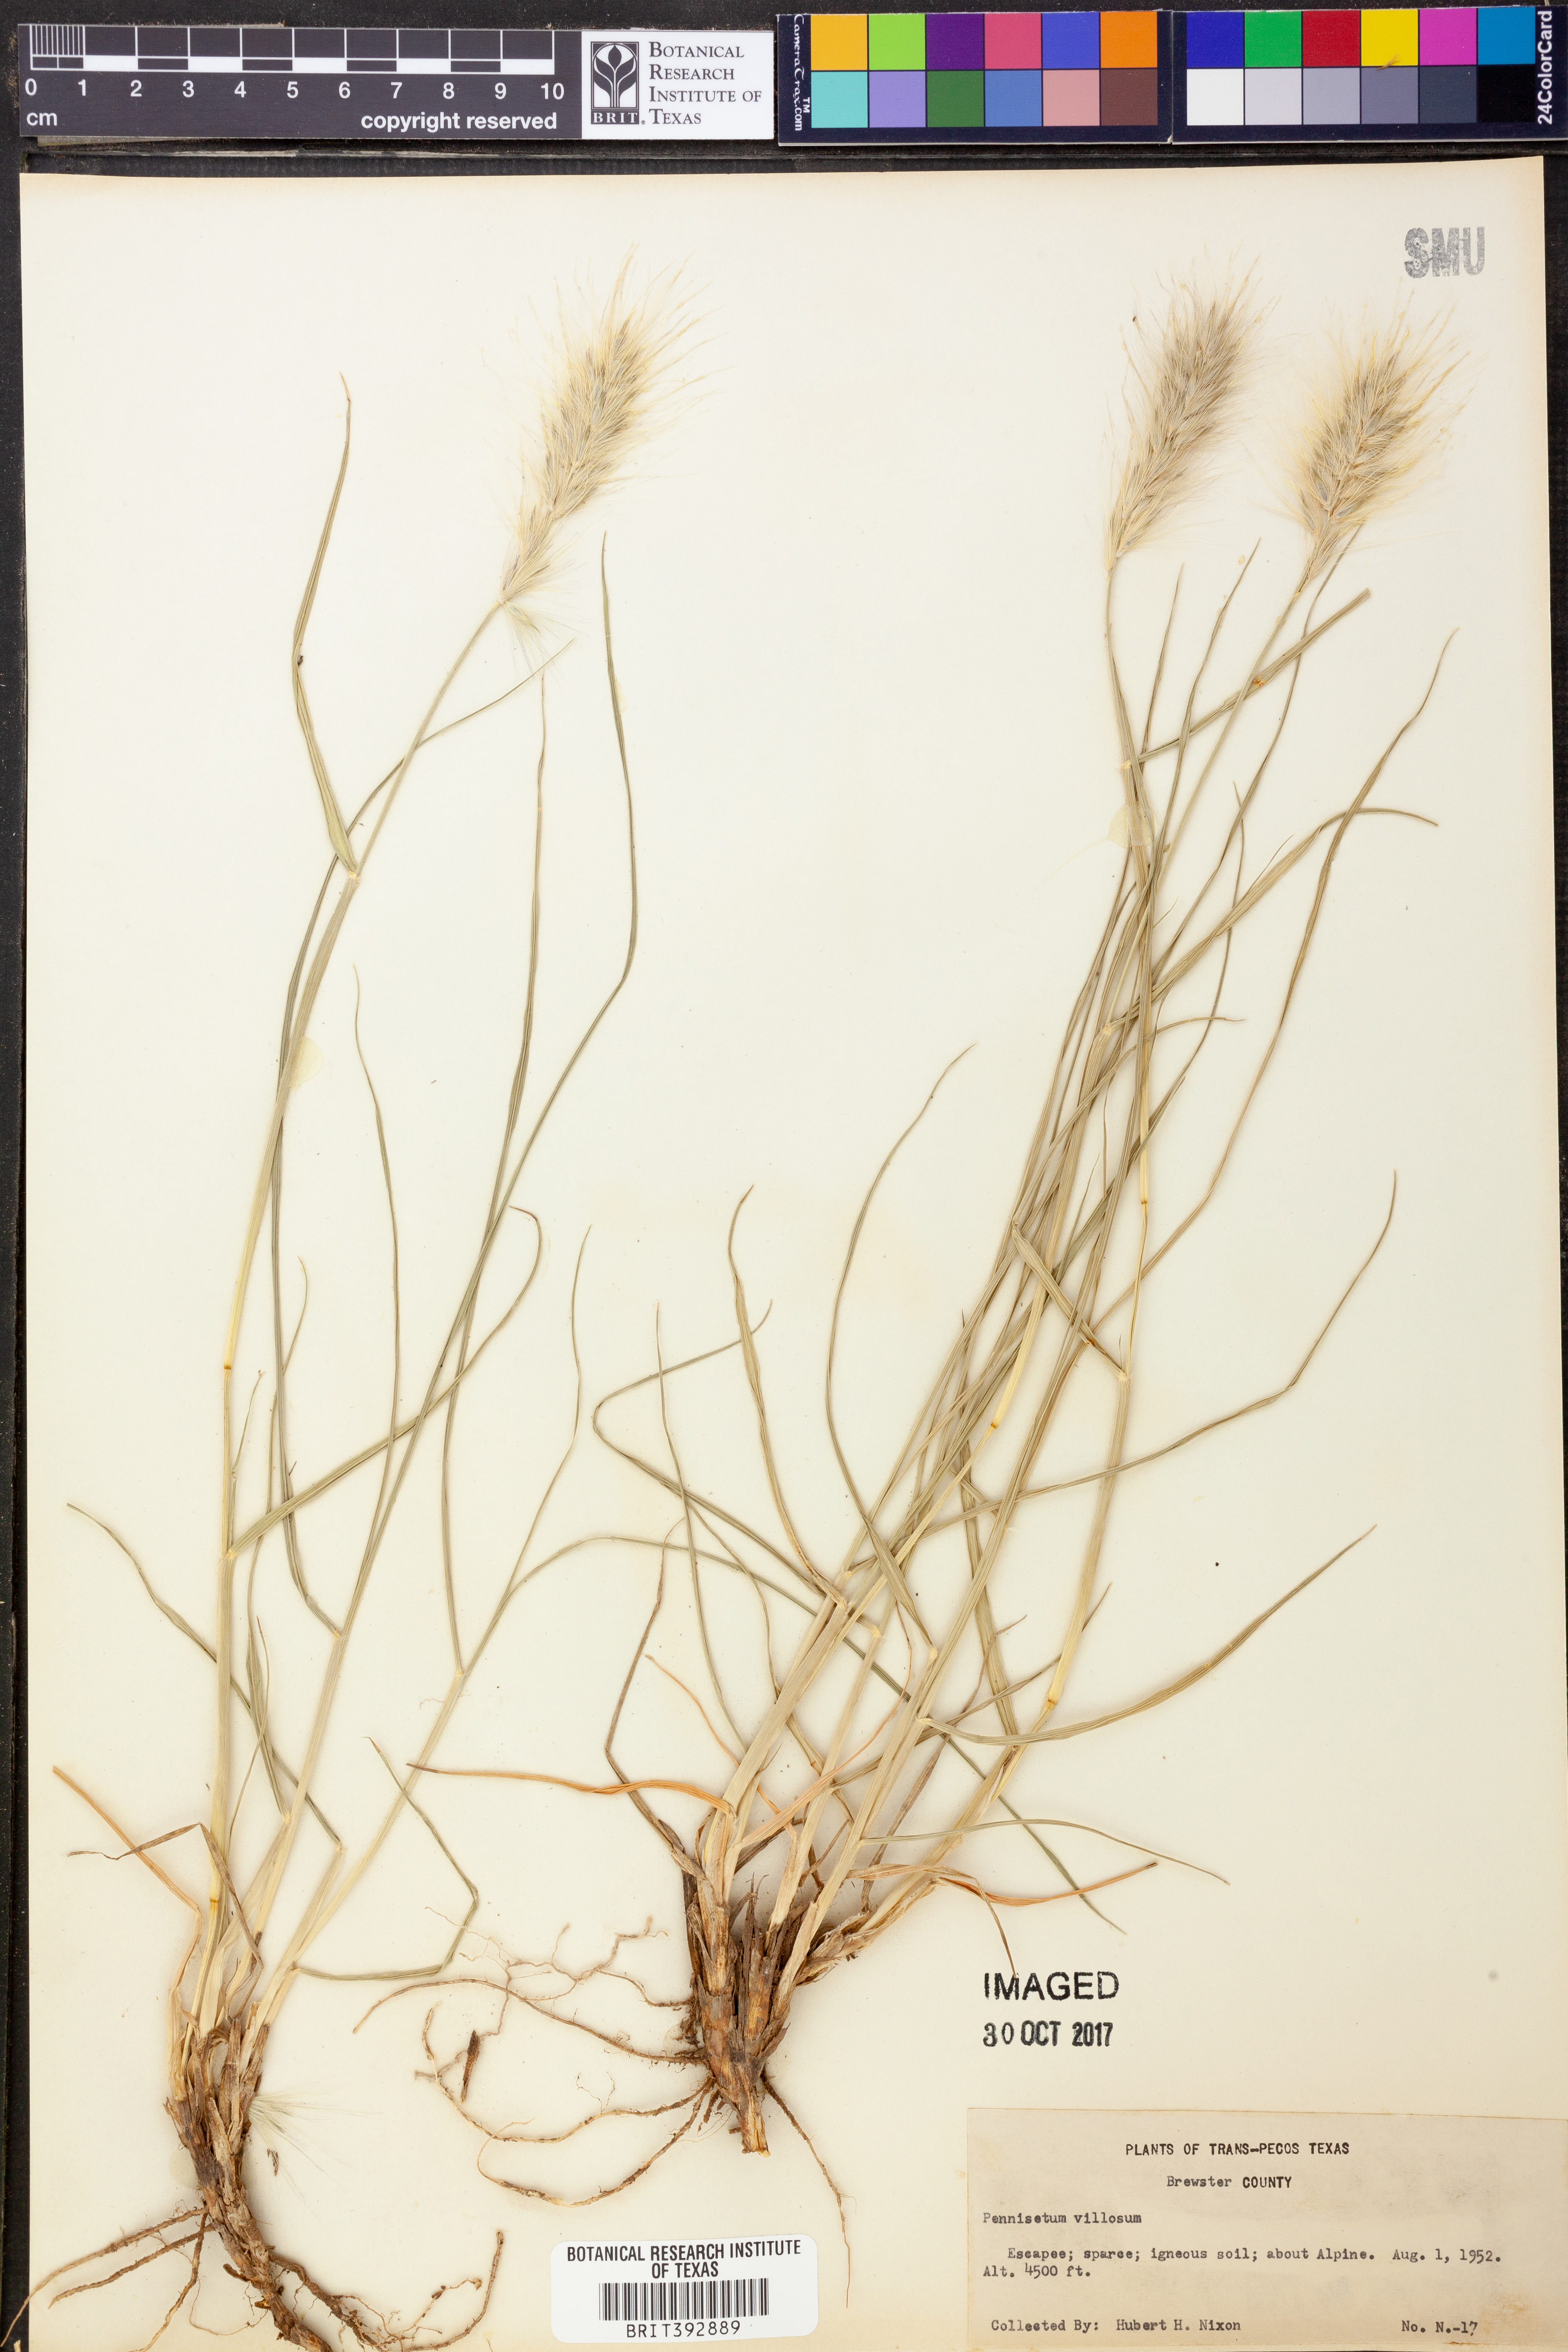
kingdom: Plantae
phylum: Tracheophyta
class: Liliopsida
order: Poales
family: Poaceae
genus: Cenchrus
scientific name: Cenchrus longisetus
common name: Feathertop
